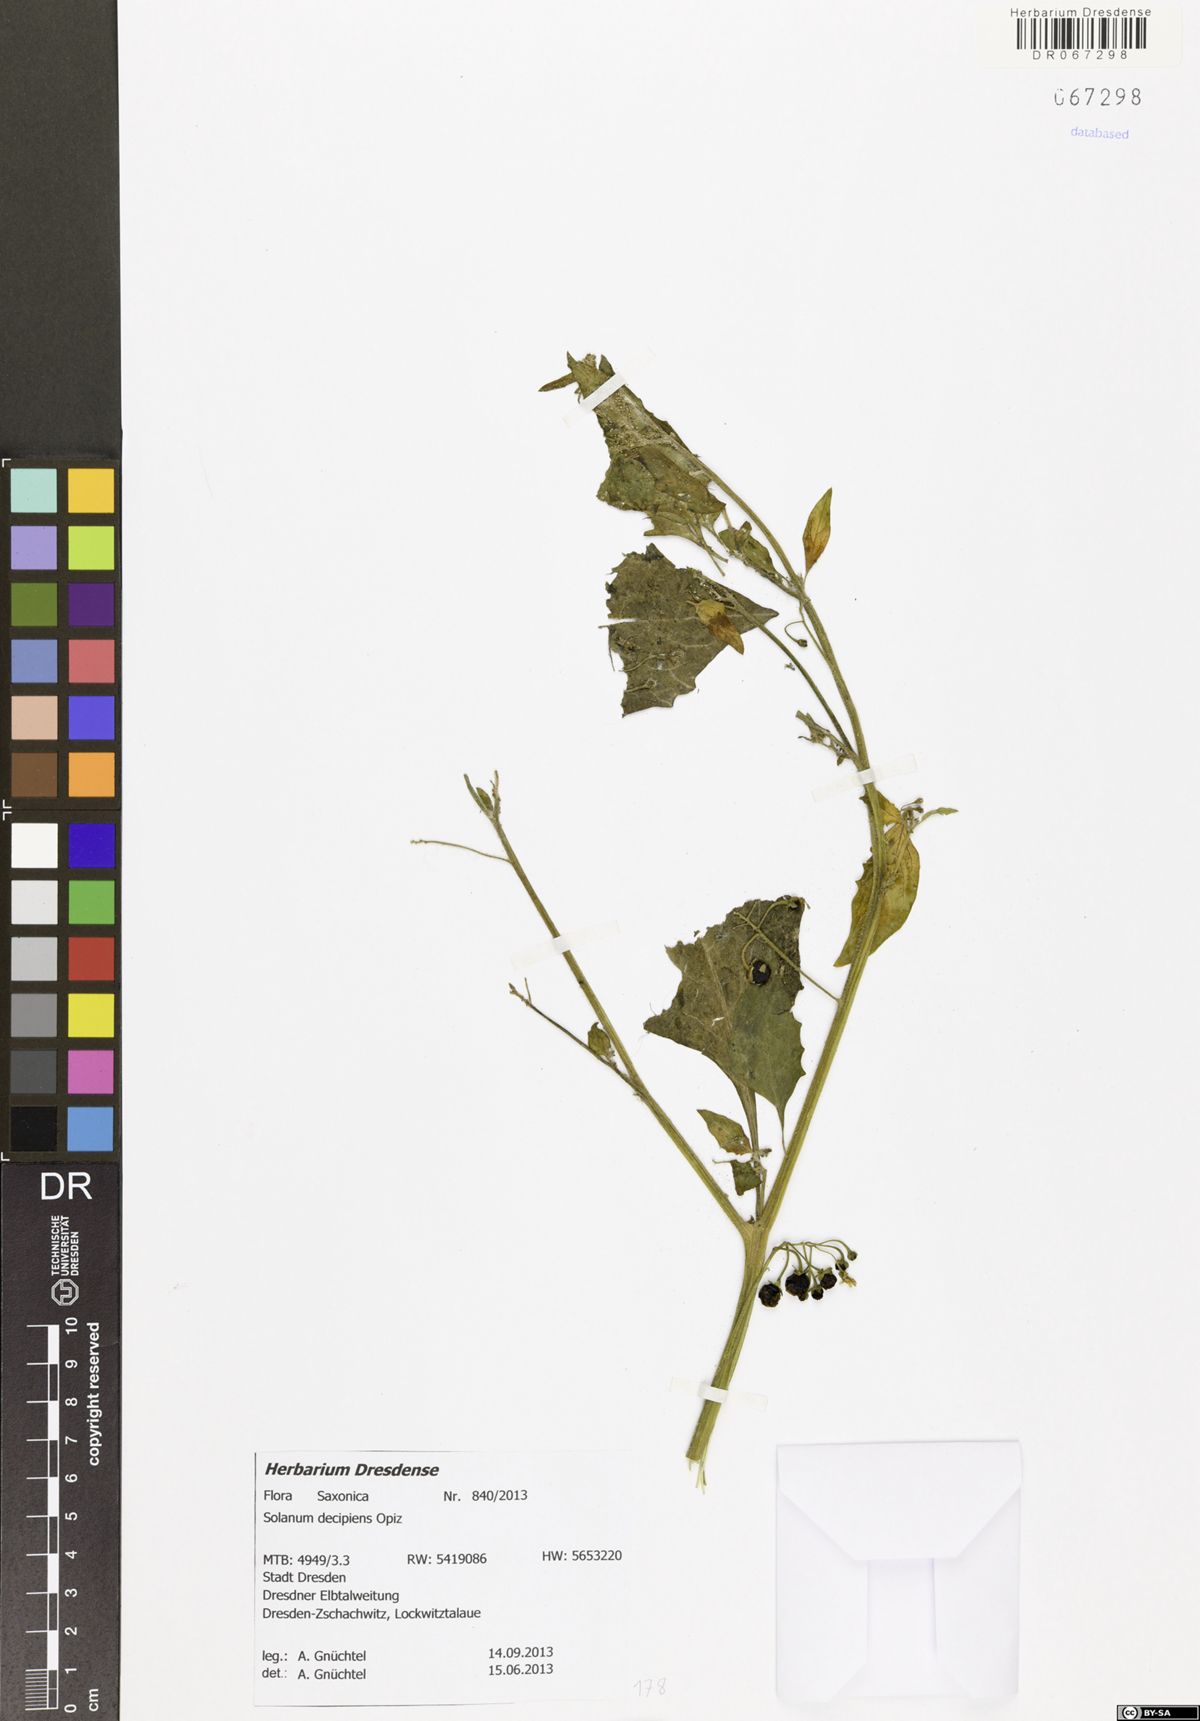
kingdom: Plantae
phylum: Tracheophyta
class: Magnoliopsida
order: Solanales
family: Solanaceae
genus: Solanum
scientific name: Solanum decipiens
